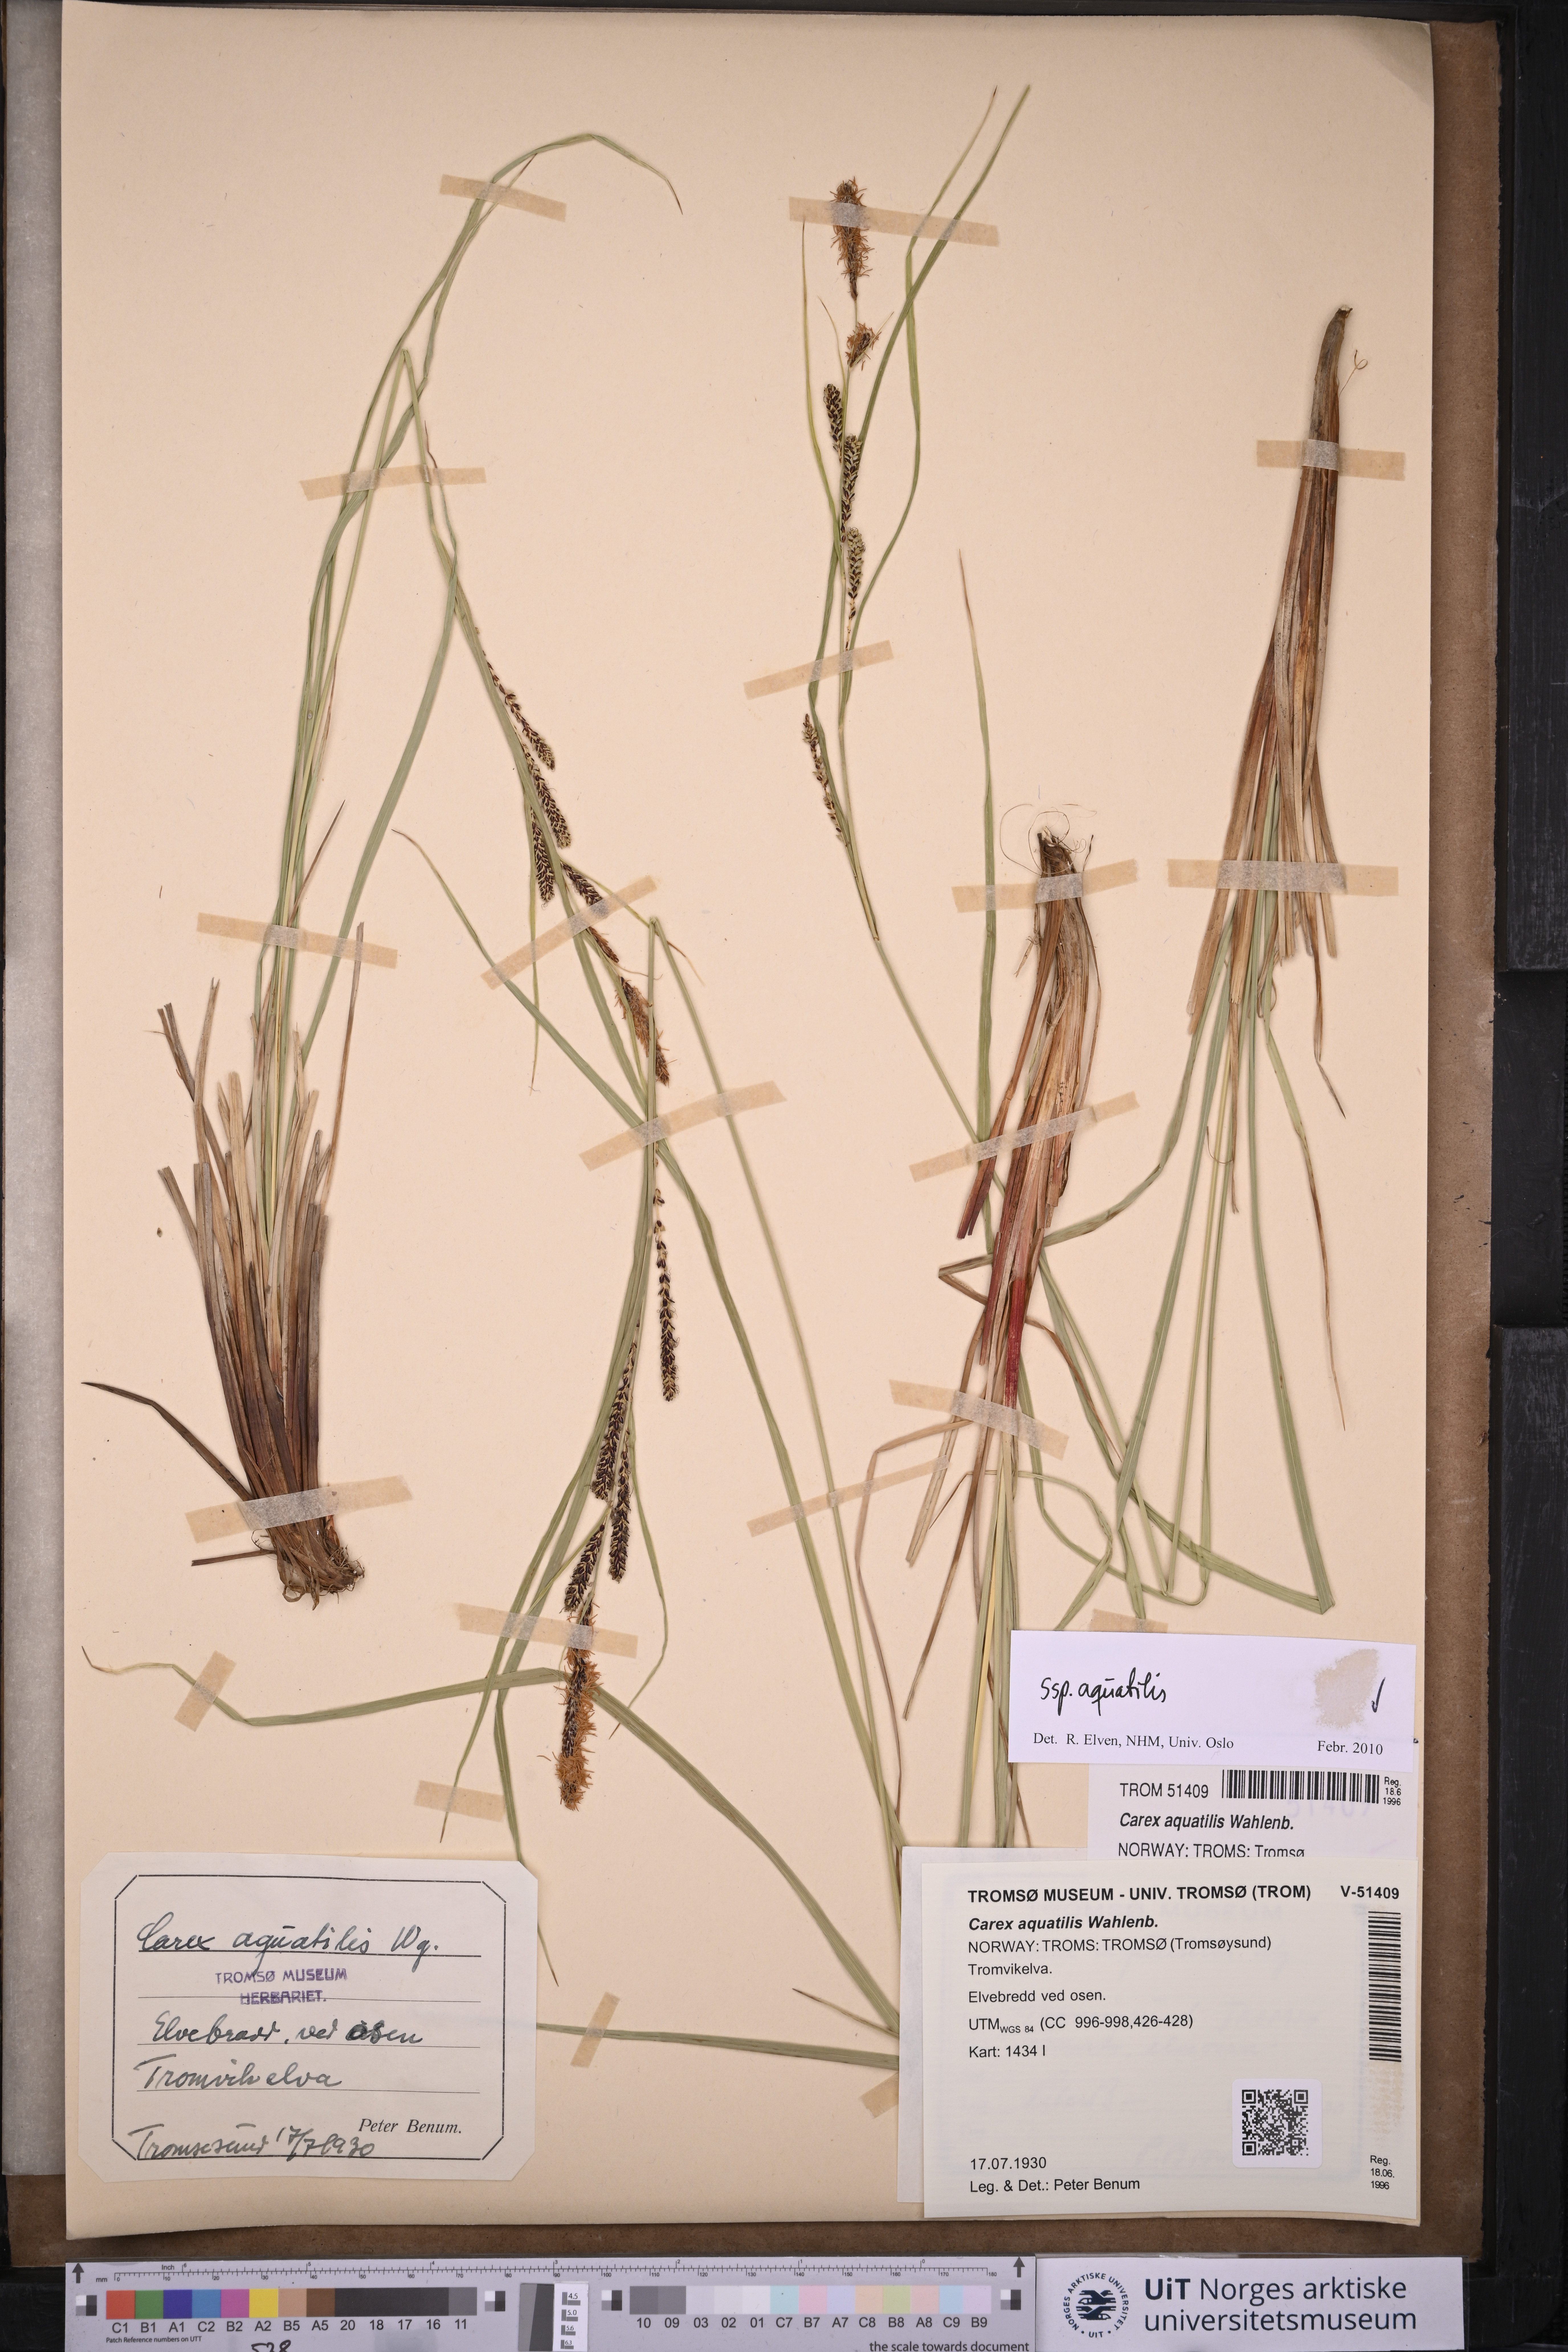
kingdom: Plantae
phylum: Tracheophyta
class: Liliopsida
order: Poales
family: Cyperaceae
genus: Carex
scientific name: Carex aquatilis
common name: Water sedge
